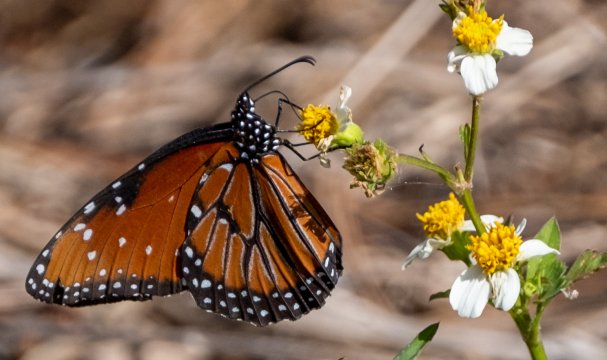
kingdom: Animalia
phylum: Arthropoda
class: Insecta
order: Lepidoptera
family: Nymphalidae
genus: Danaus
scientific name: Danaus gilippus
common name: Queen
